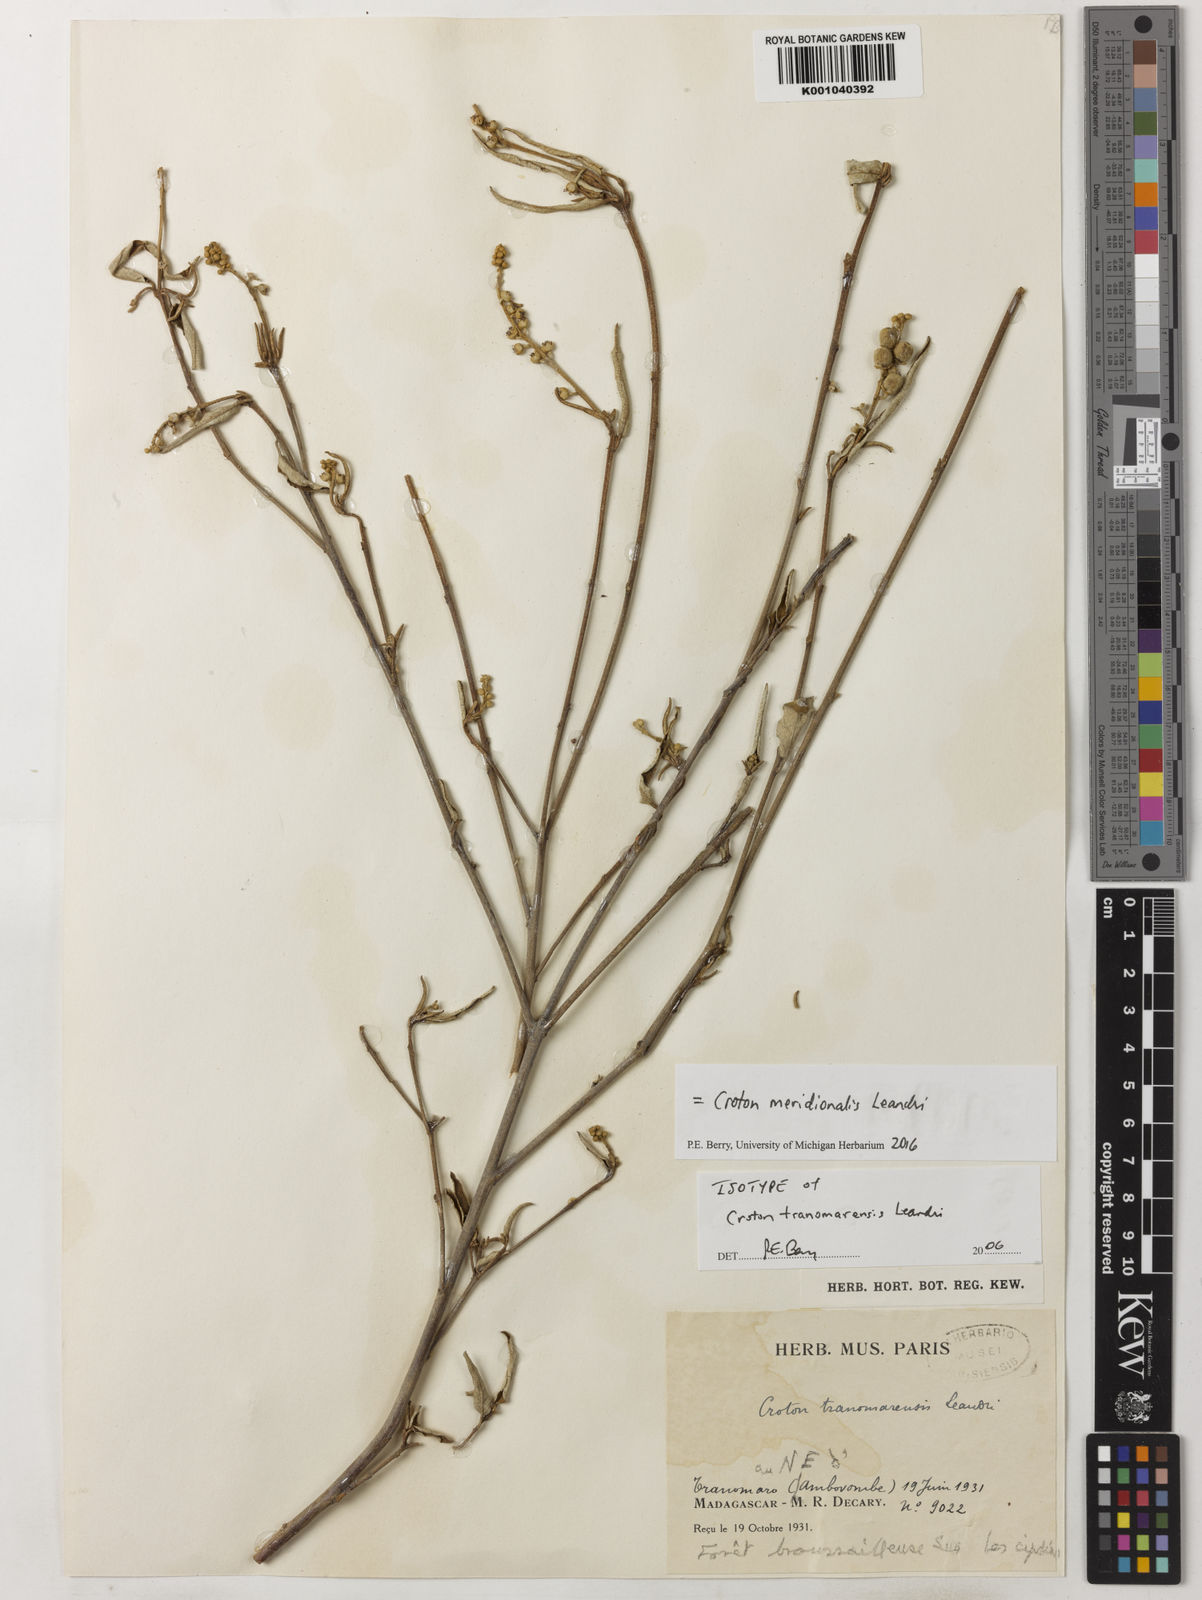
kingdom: Plantae
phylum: Tracheophyta
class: Magnoliopsida
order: Malpighiales
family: Euphorbiaceae
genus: Croton
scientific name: Croton meridionalis
